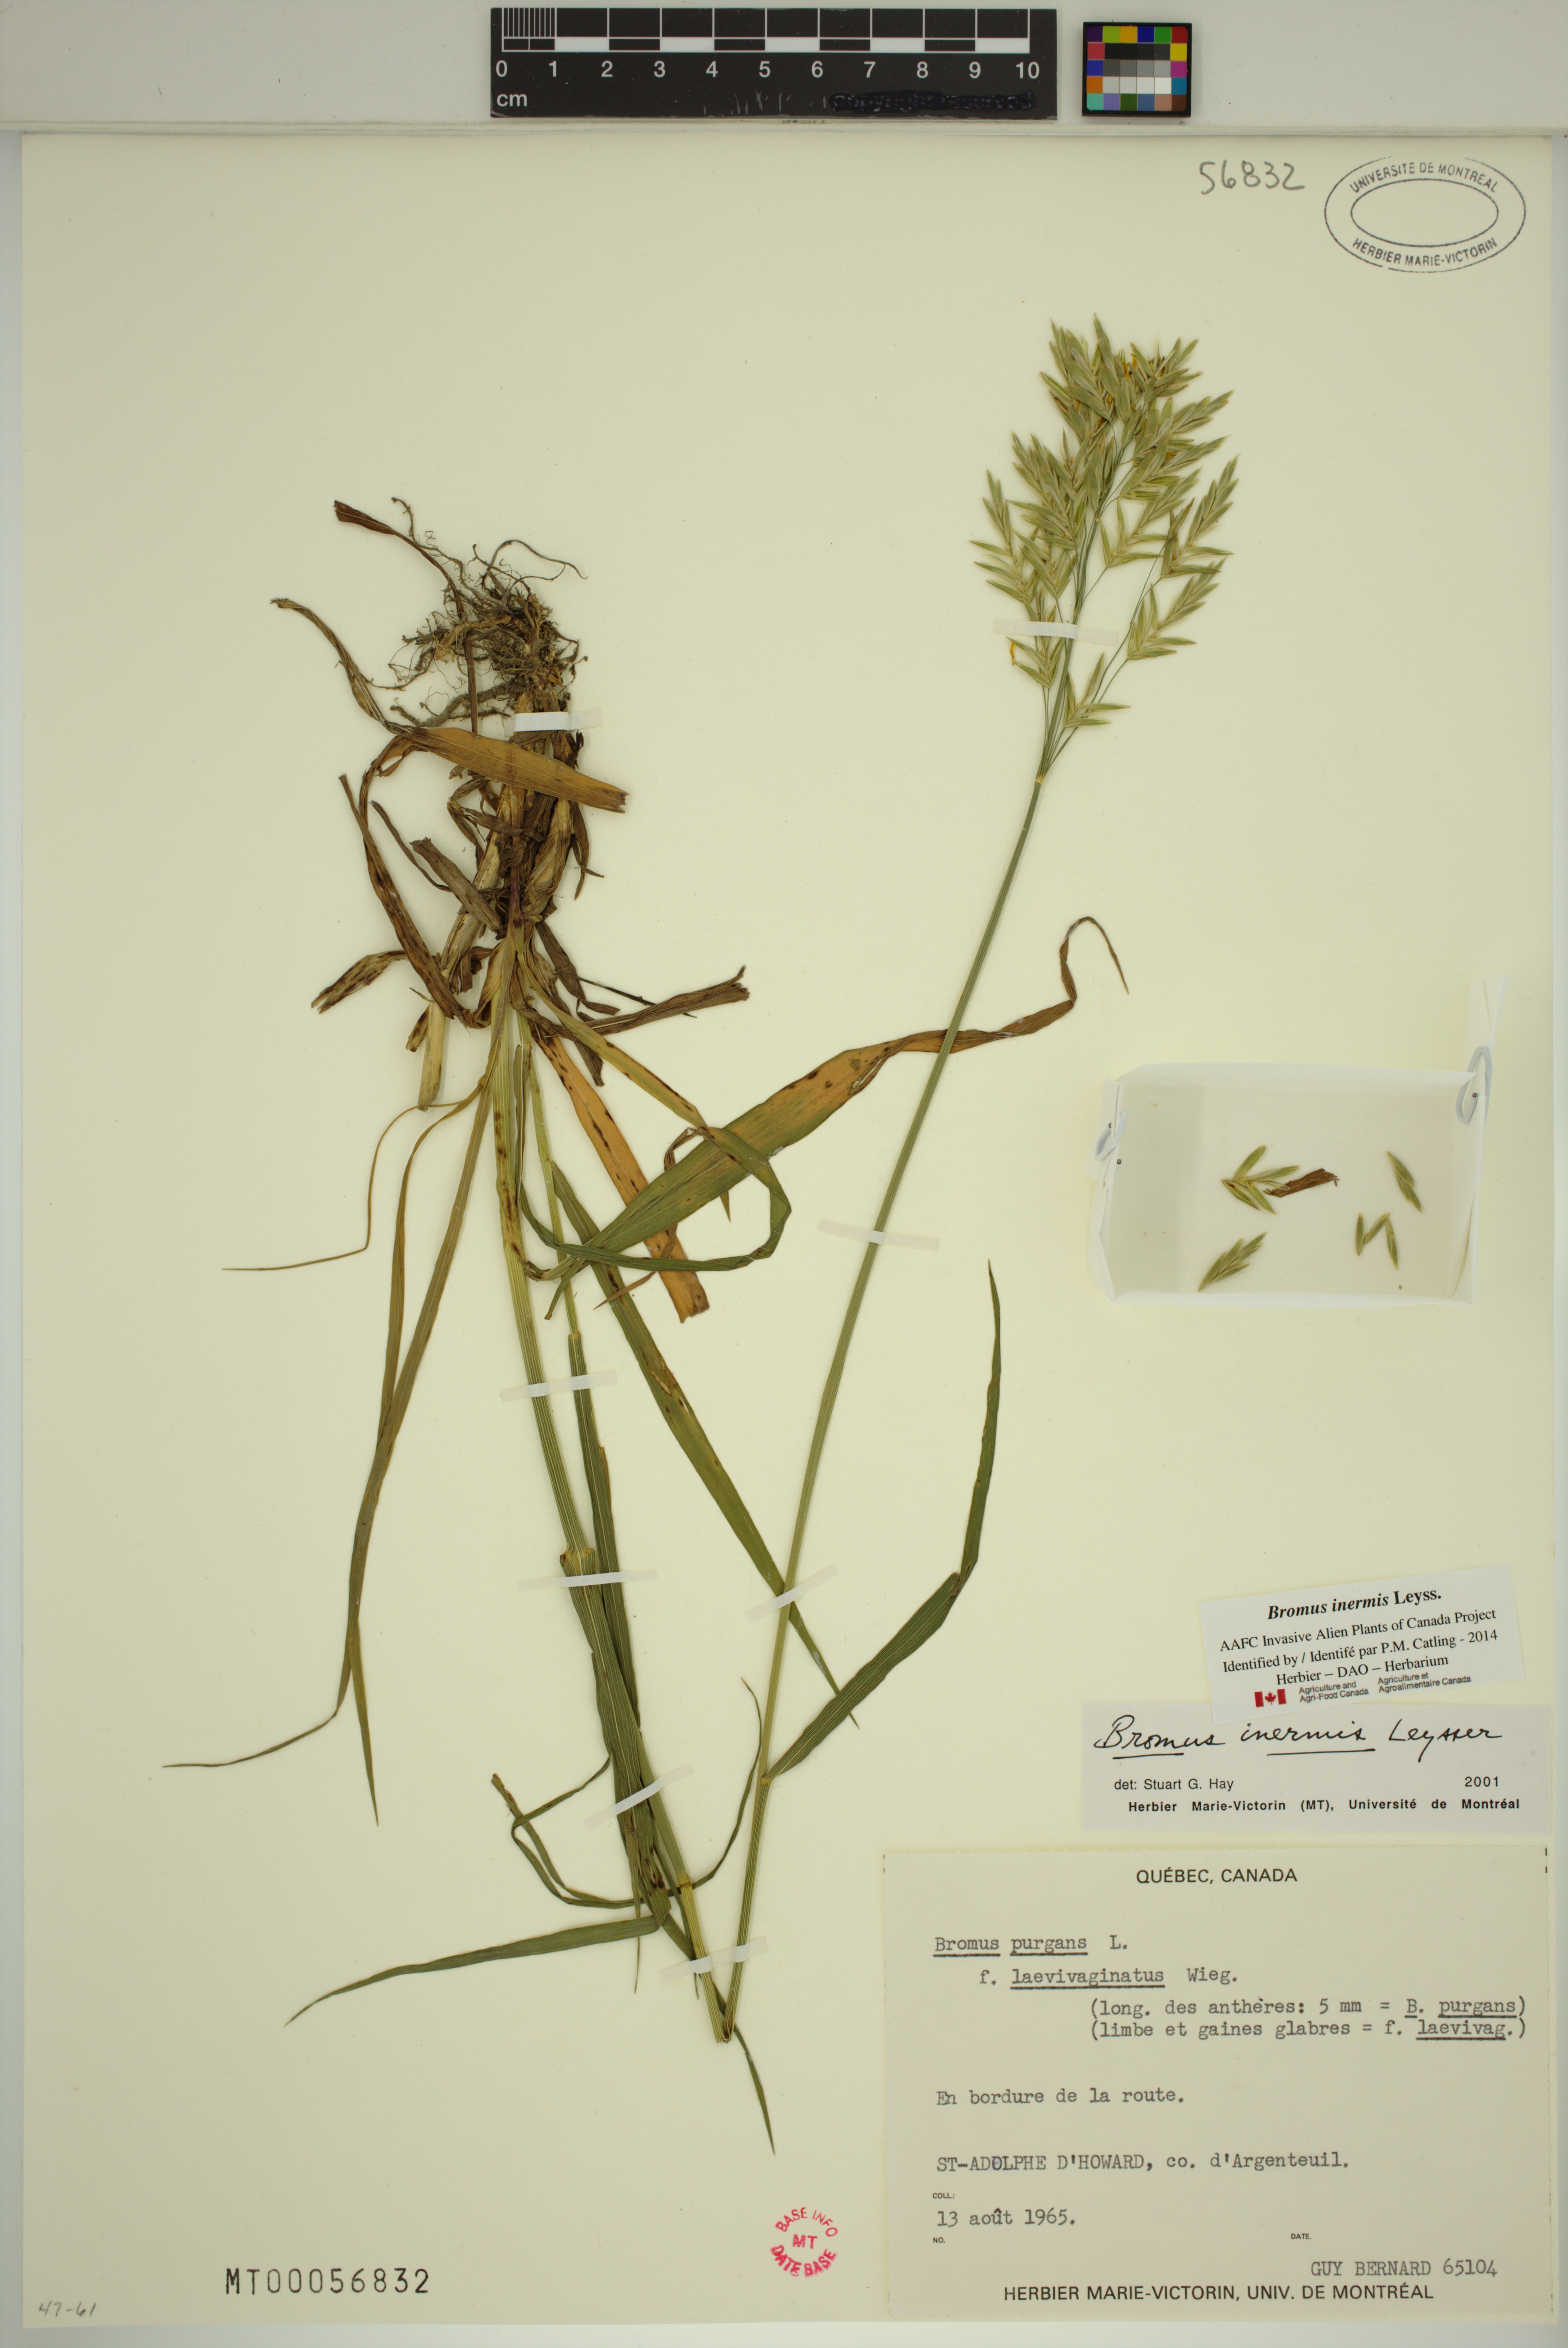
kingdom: Plantae
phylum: Tracheophyta
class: Liliopsida
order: Poales
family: Poaceae
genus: Bromus
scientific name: Bromus inermis
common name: Smooth brome
